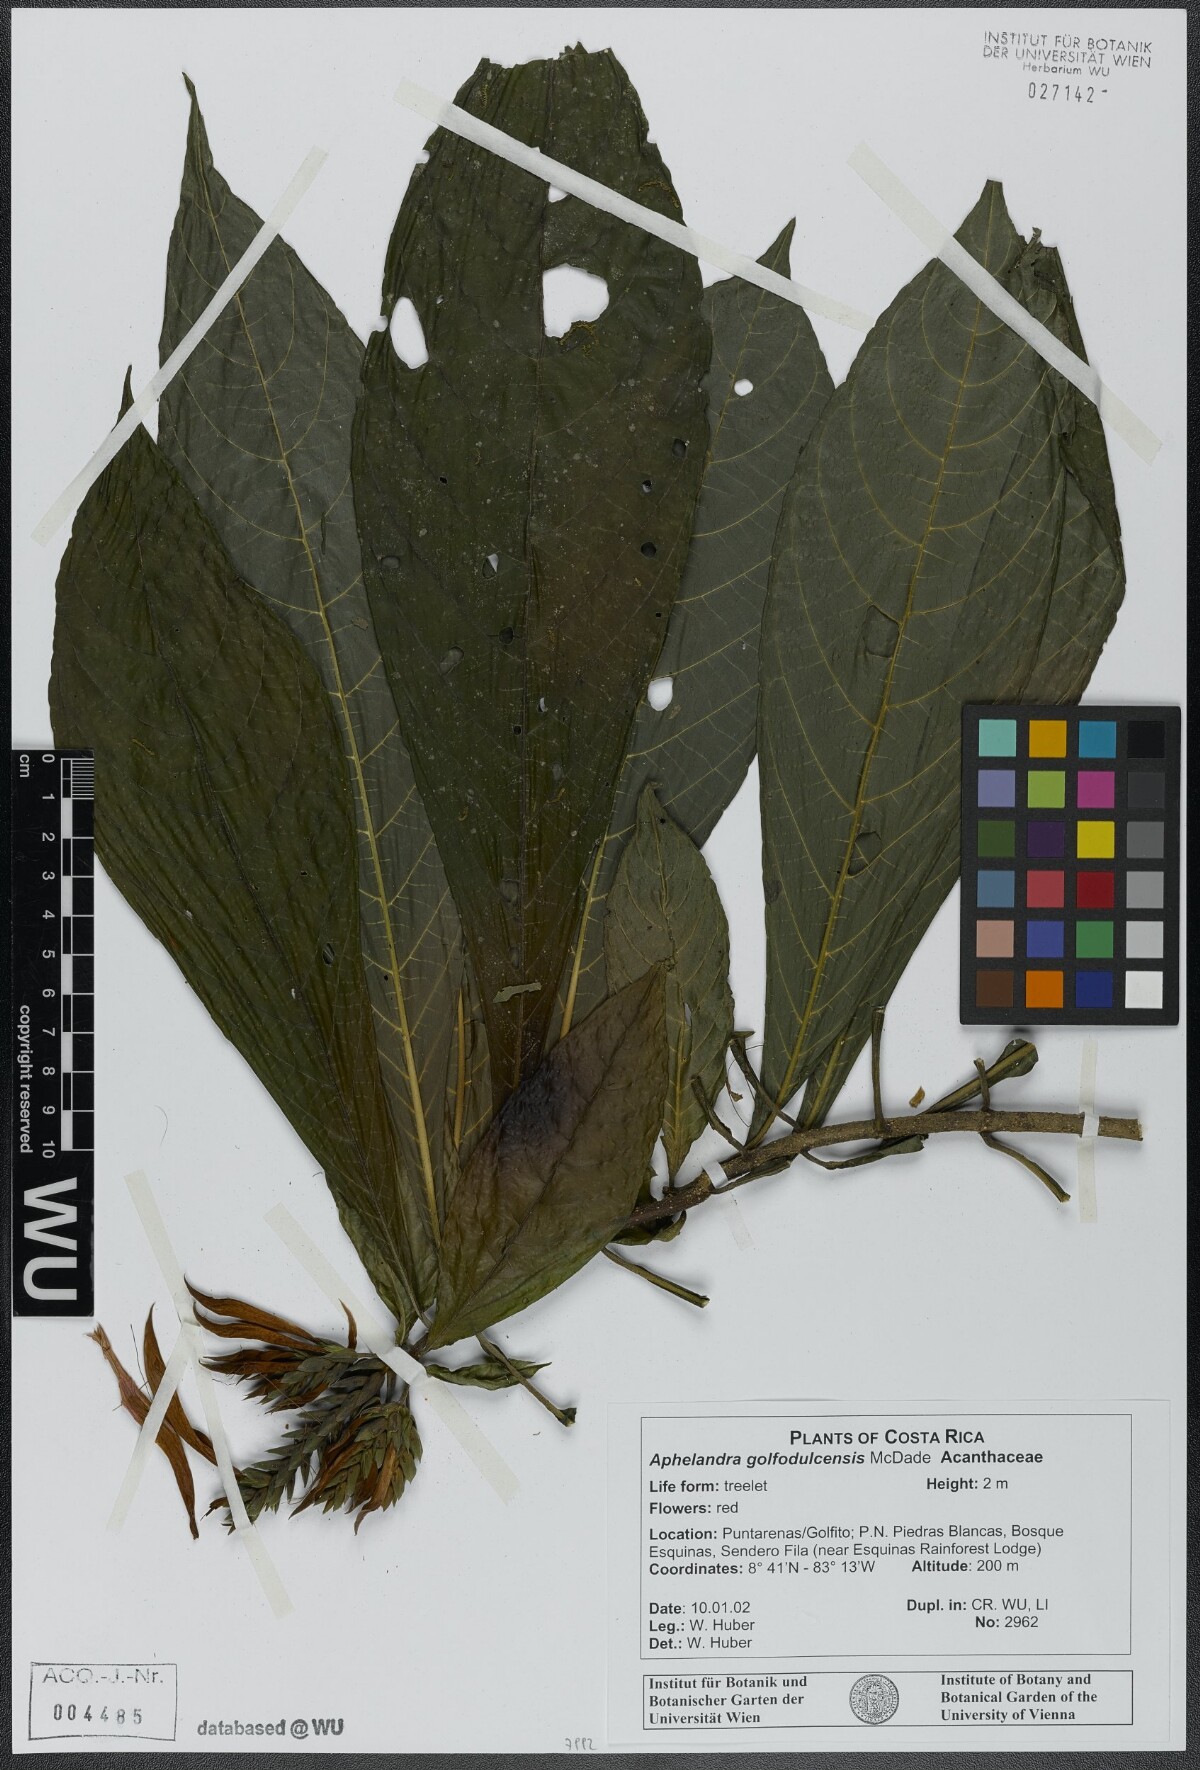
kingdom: Plantae
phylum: Tracheophyta
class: Magnoliopsida
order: Lamiales
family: Acanthaceae
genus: Aphelandra
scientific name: Aphelandra golfodulcensis
